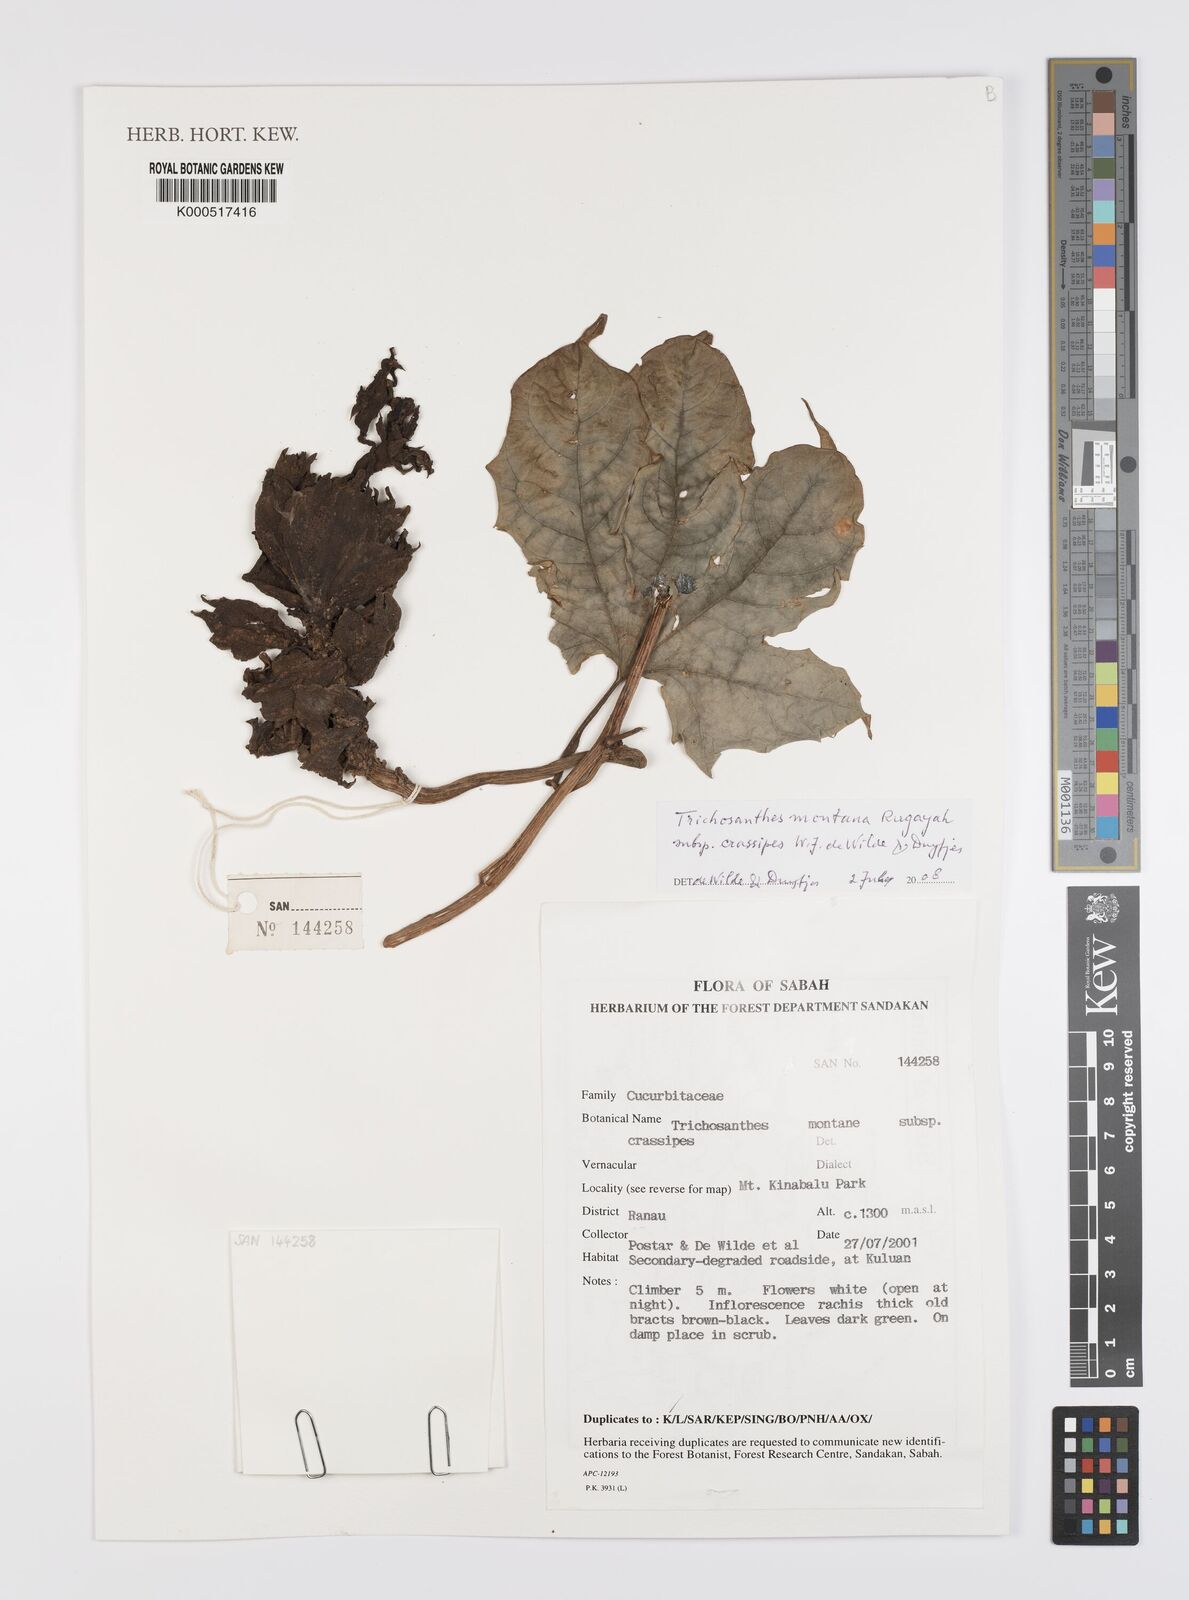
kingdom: Plantae
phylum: Tracheophyta
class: Magnoliopsida
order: Cucurbitales
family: Cucurbitaceae
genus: Trichosanthes
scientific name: Trichosanthes montana
